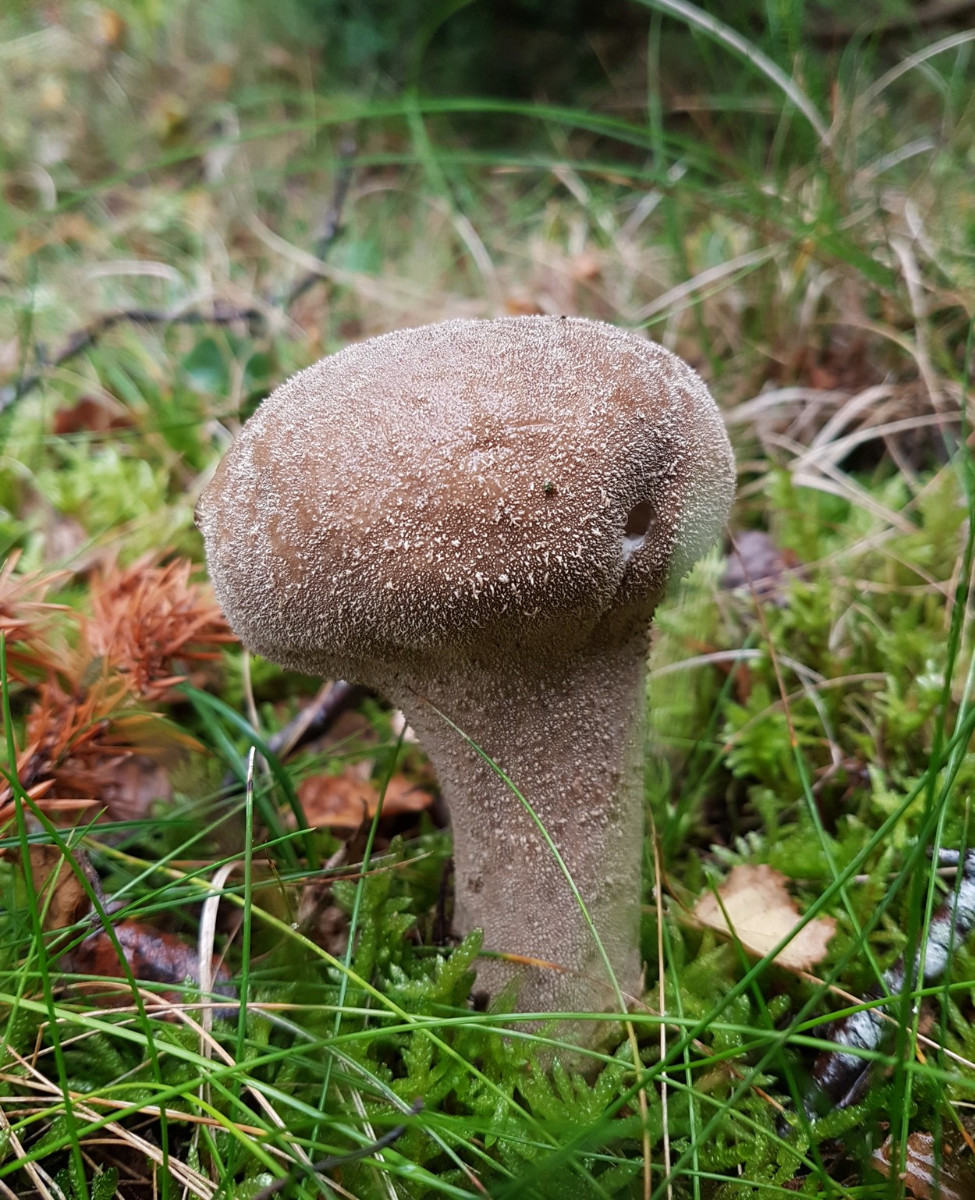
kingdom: Fungi
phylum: Basidiomycota
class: Agaricomycetes
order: Agaricales
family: Lycoperdaceae
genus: Lycoperdon
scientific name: Lycoperdon excipuliforme
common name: højstokket støvbold
